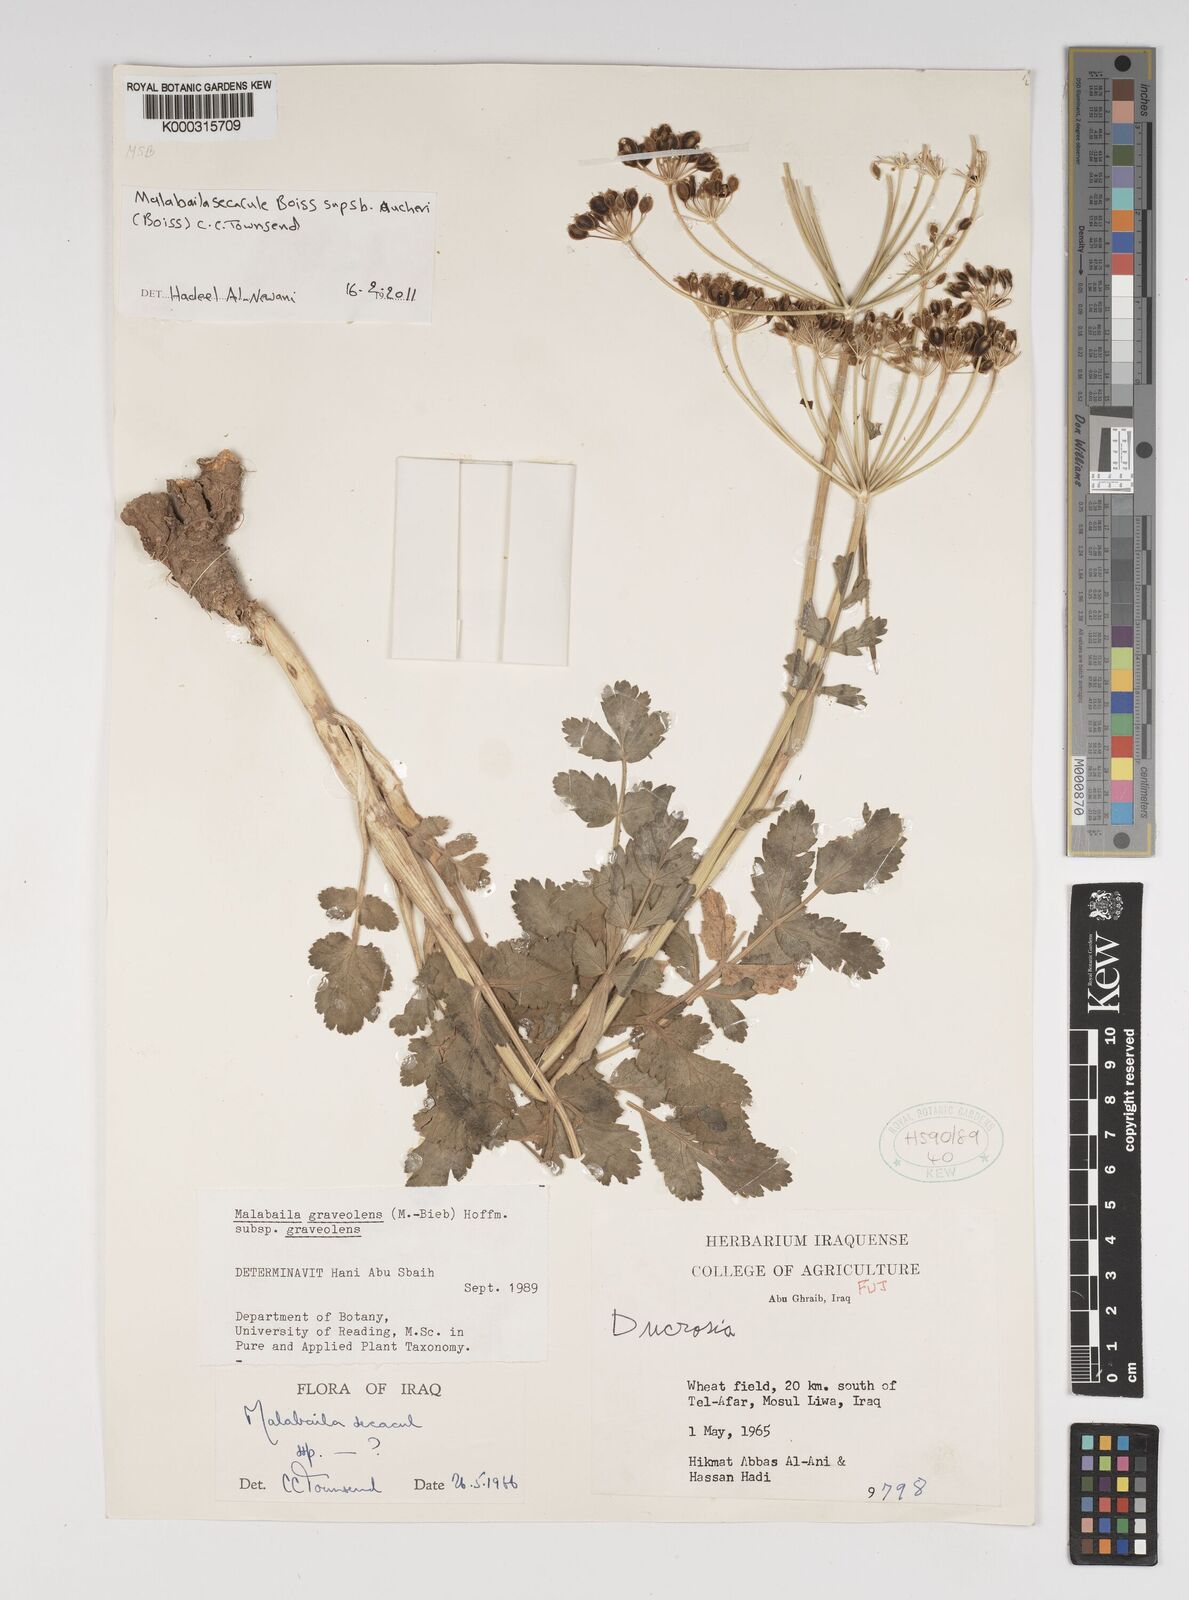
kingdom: Plantae
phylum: Tracheophyta
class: Magnoliopsida
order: Apiales
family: Apiaceae
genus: Pastinaca
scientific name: Pastinaca clausii
